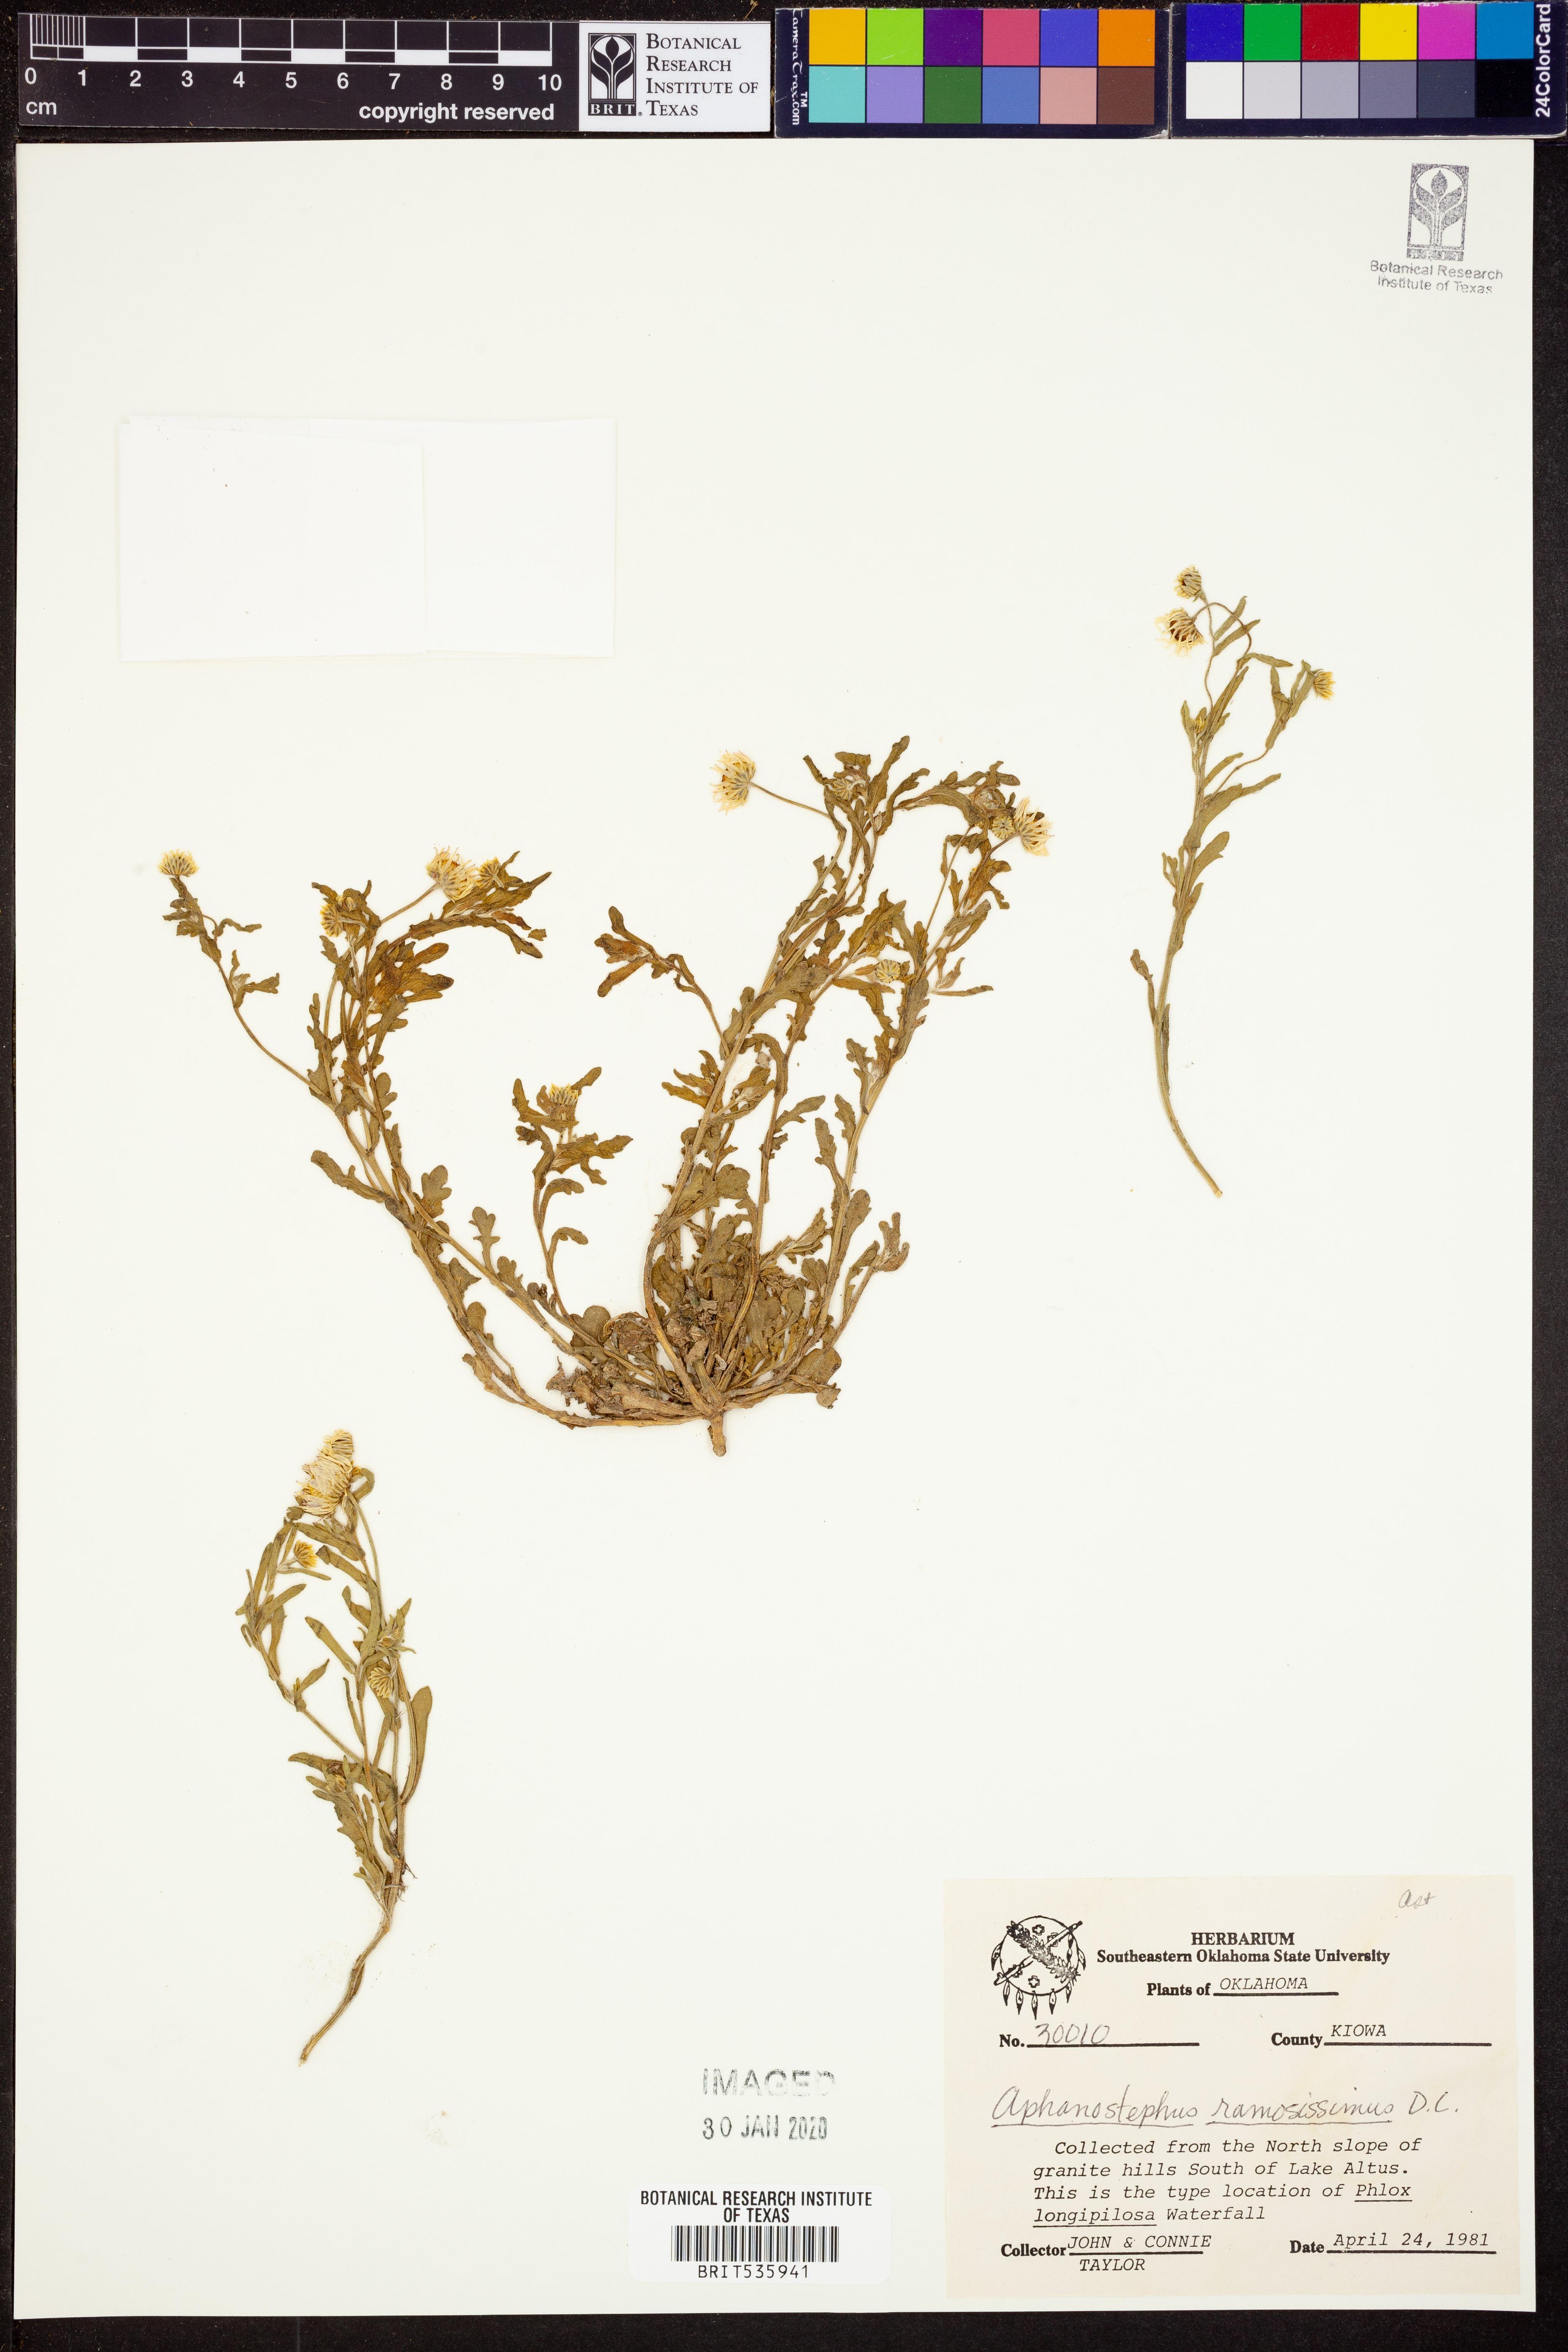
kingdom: Plantae
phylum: Tracheophyta
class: Magnoliopsida
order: Asterales
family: Asteraceae
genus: Aphanostephus
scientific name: Aphanostephus ramosissimus
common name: Plains lazy daisy
